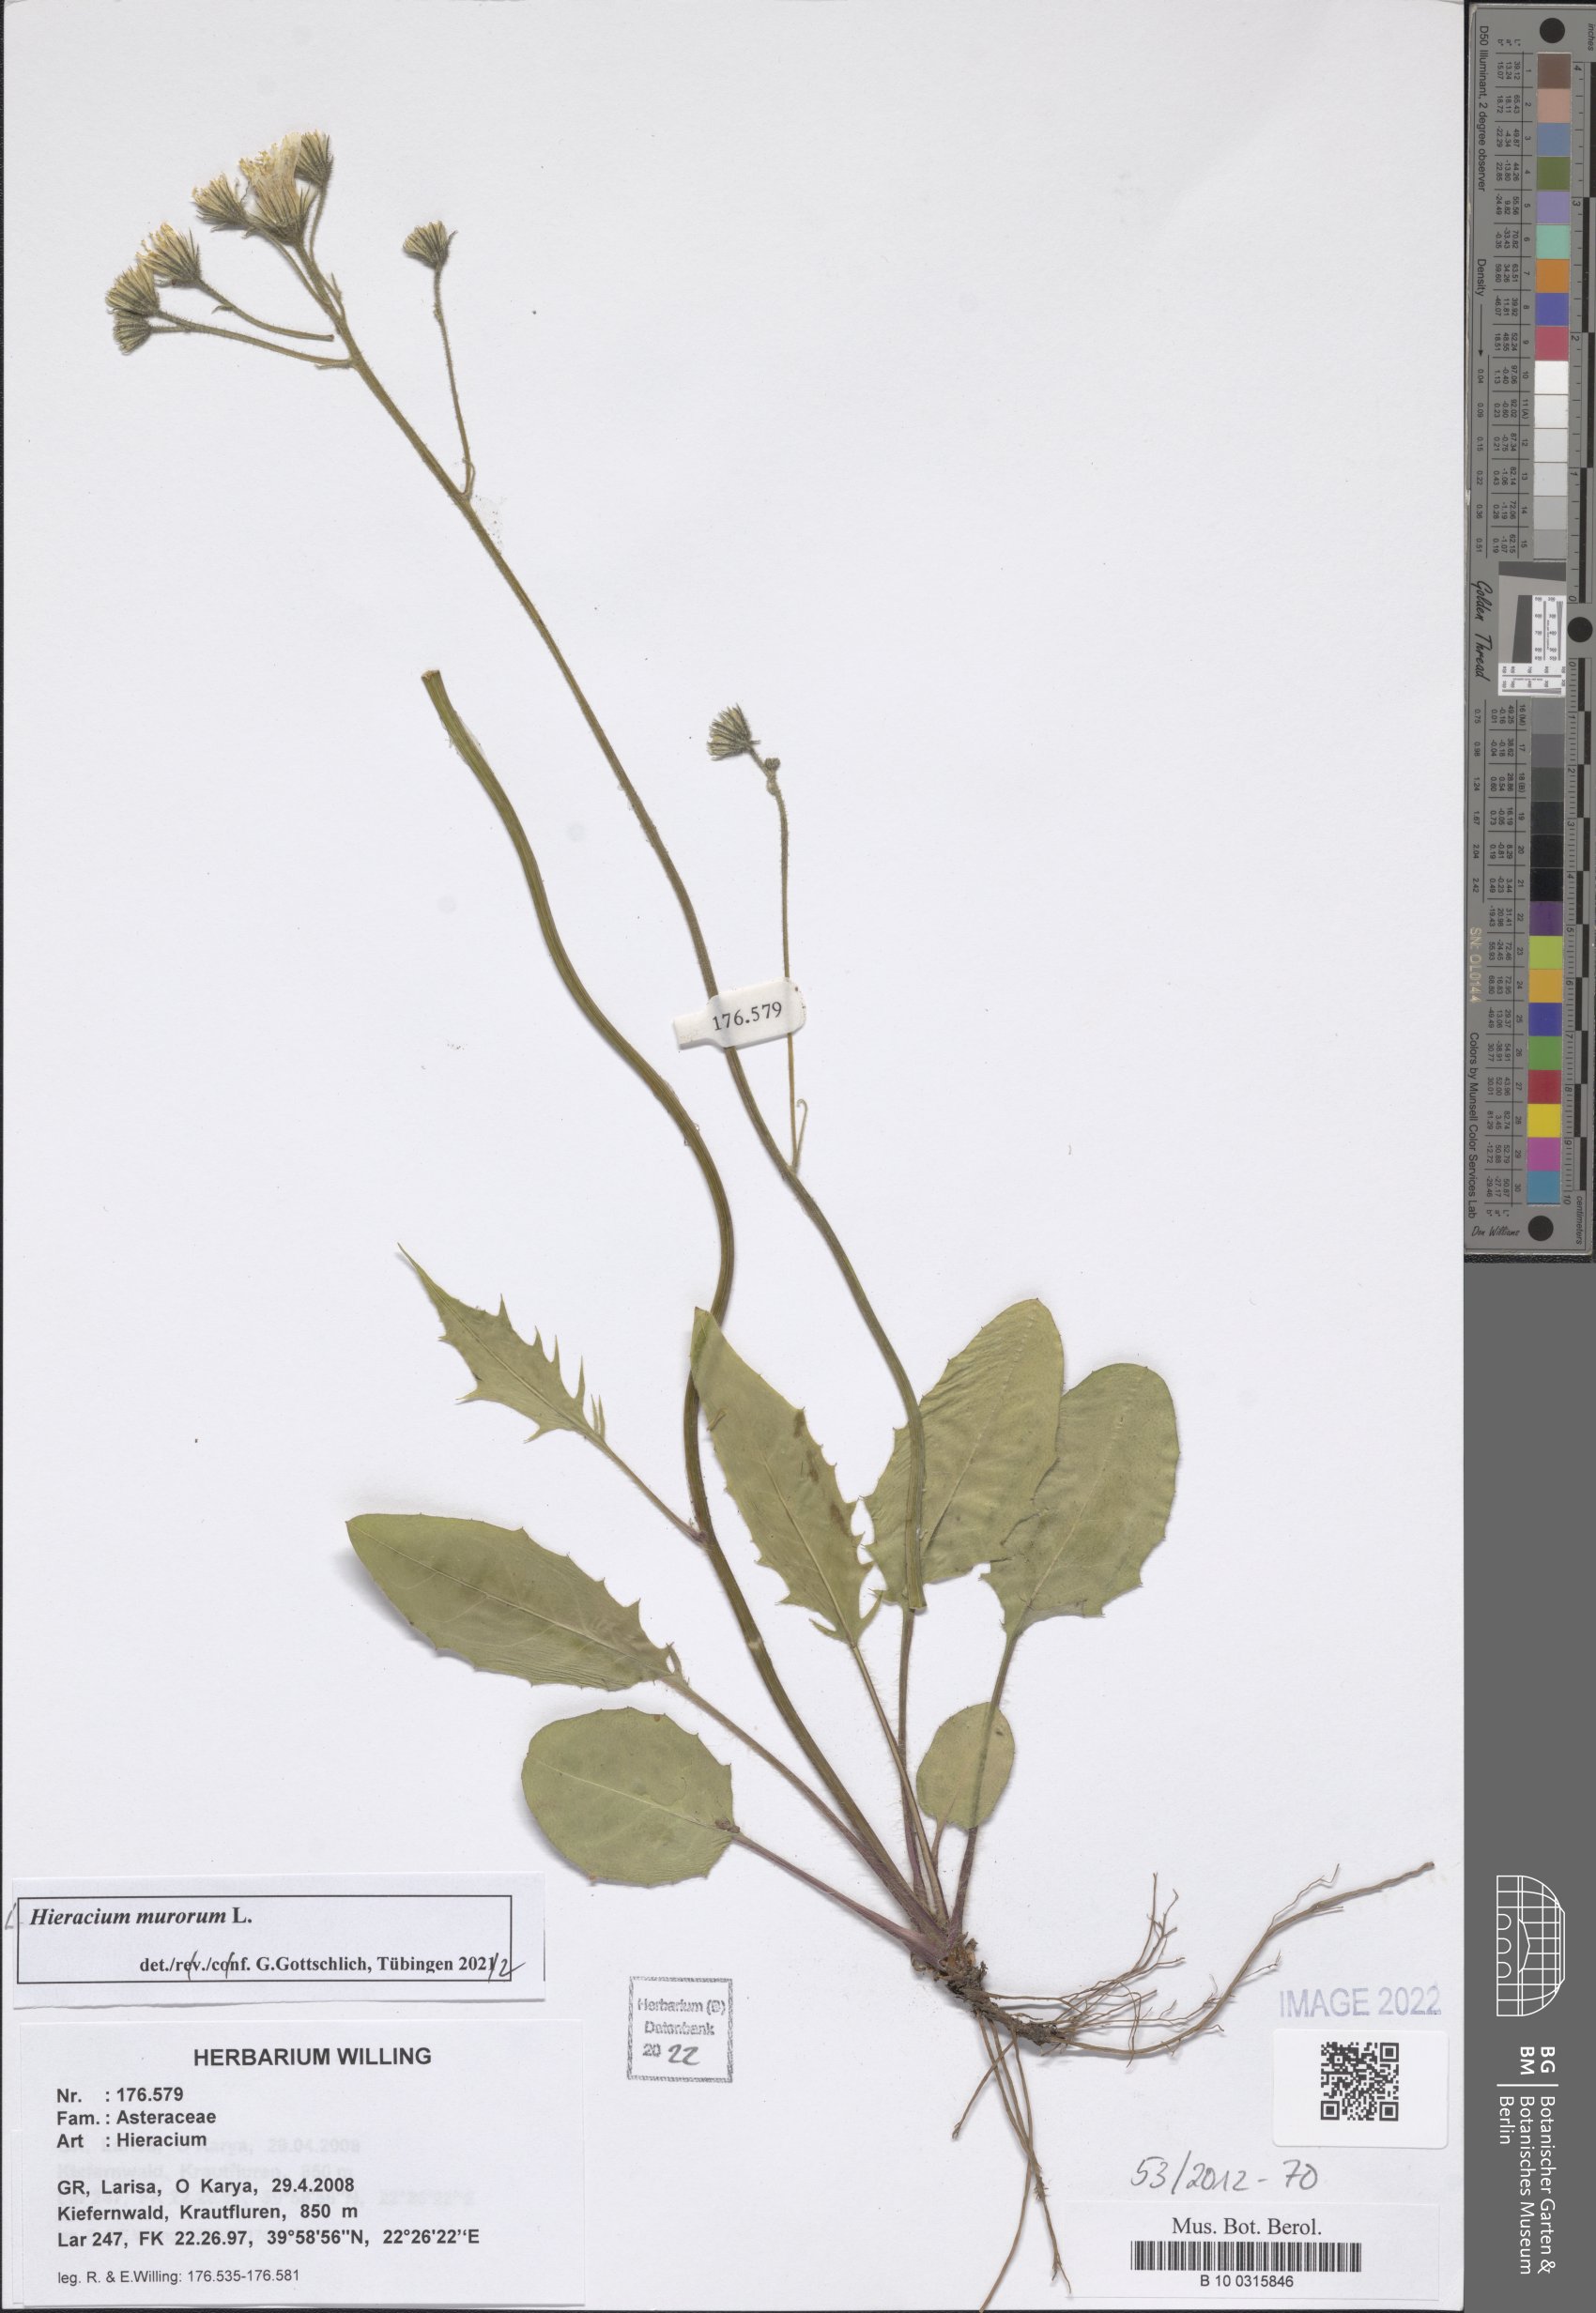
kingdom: Plantae
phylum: Tracheophyta
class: Magnoliopsida
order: Asterales
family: Asteraceae
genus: Hieracium
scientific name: Hieracium murorum
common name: Wall hawkweed
